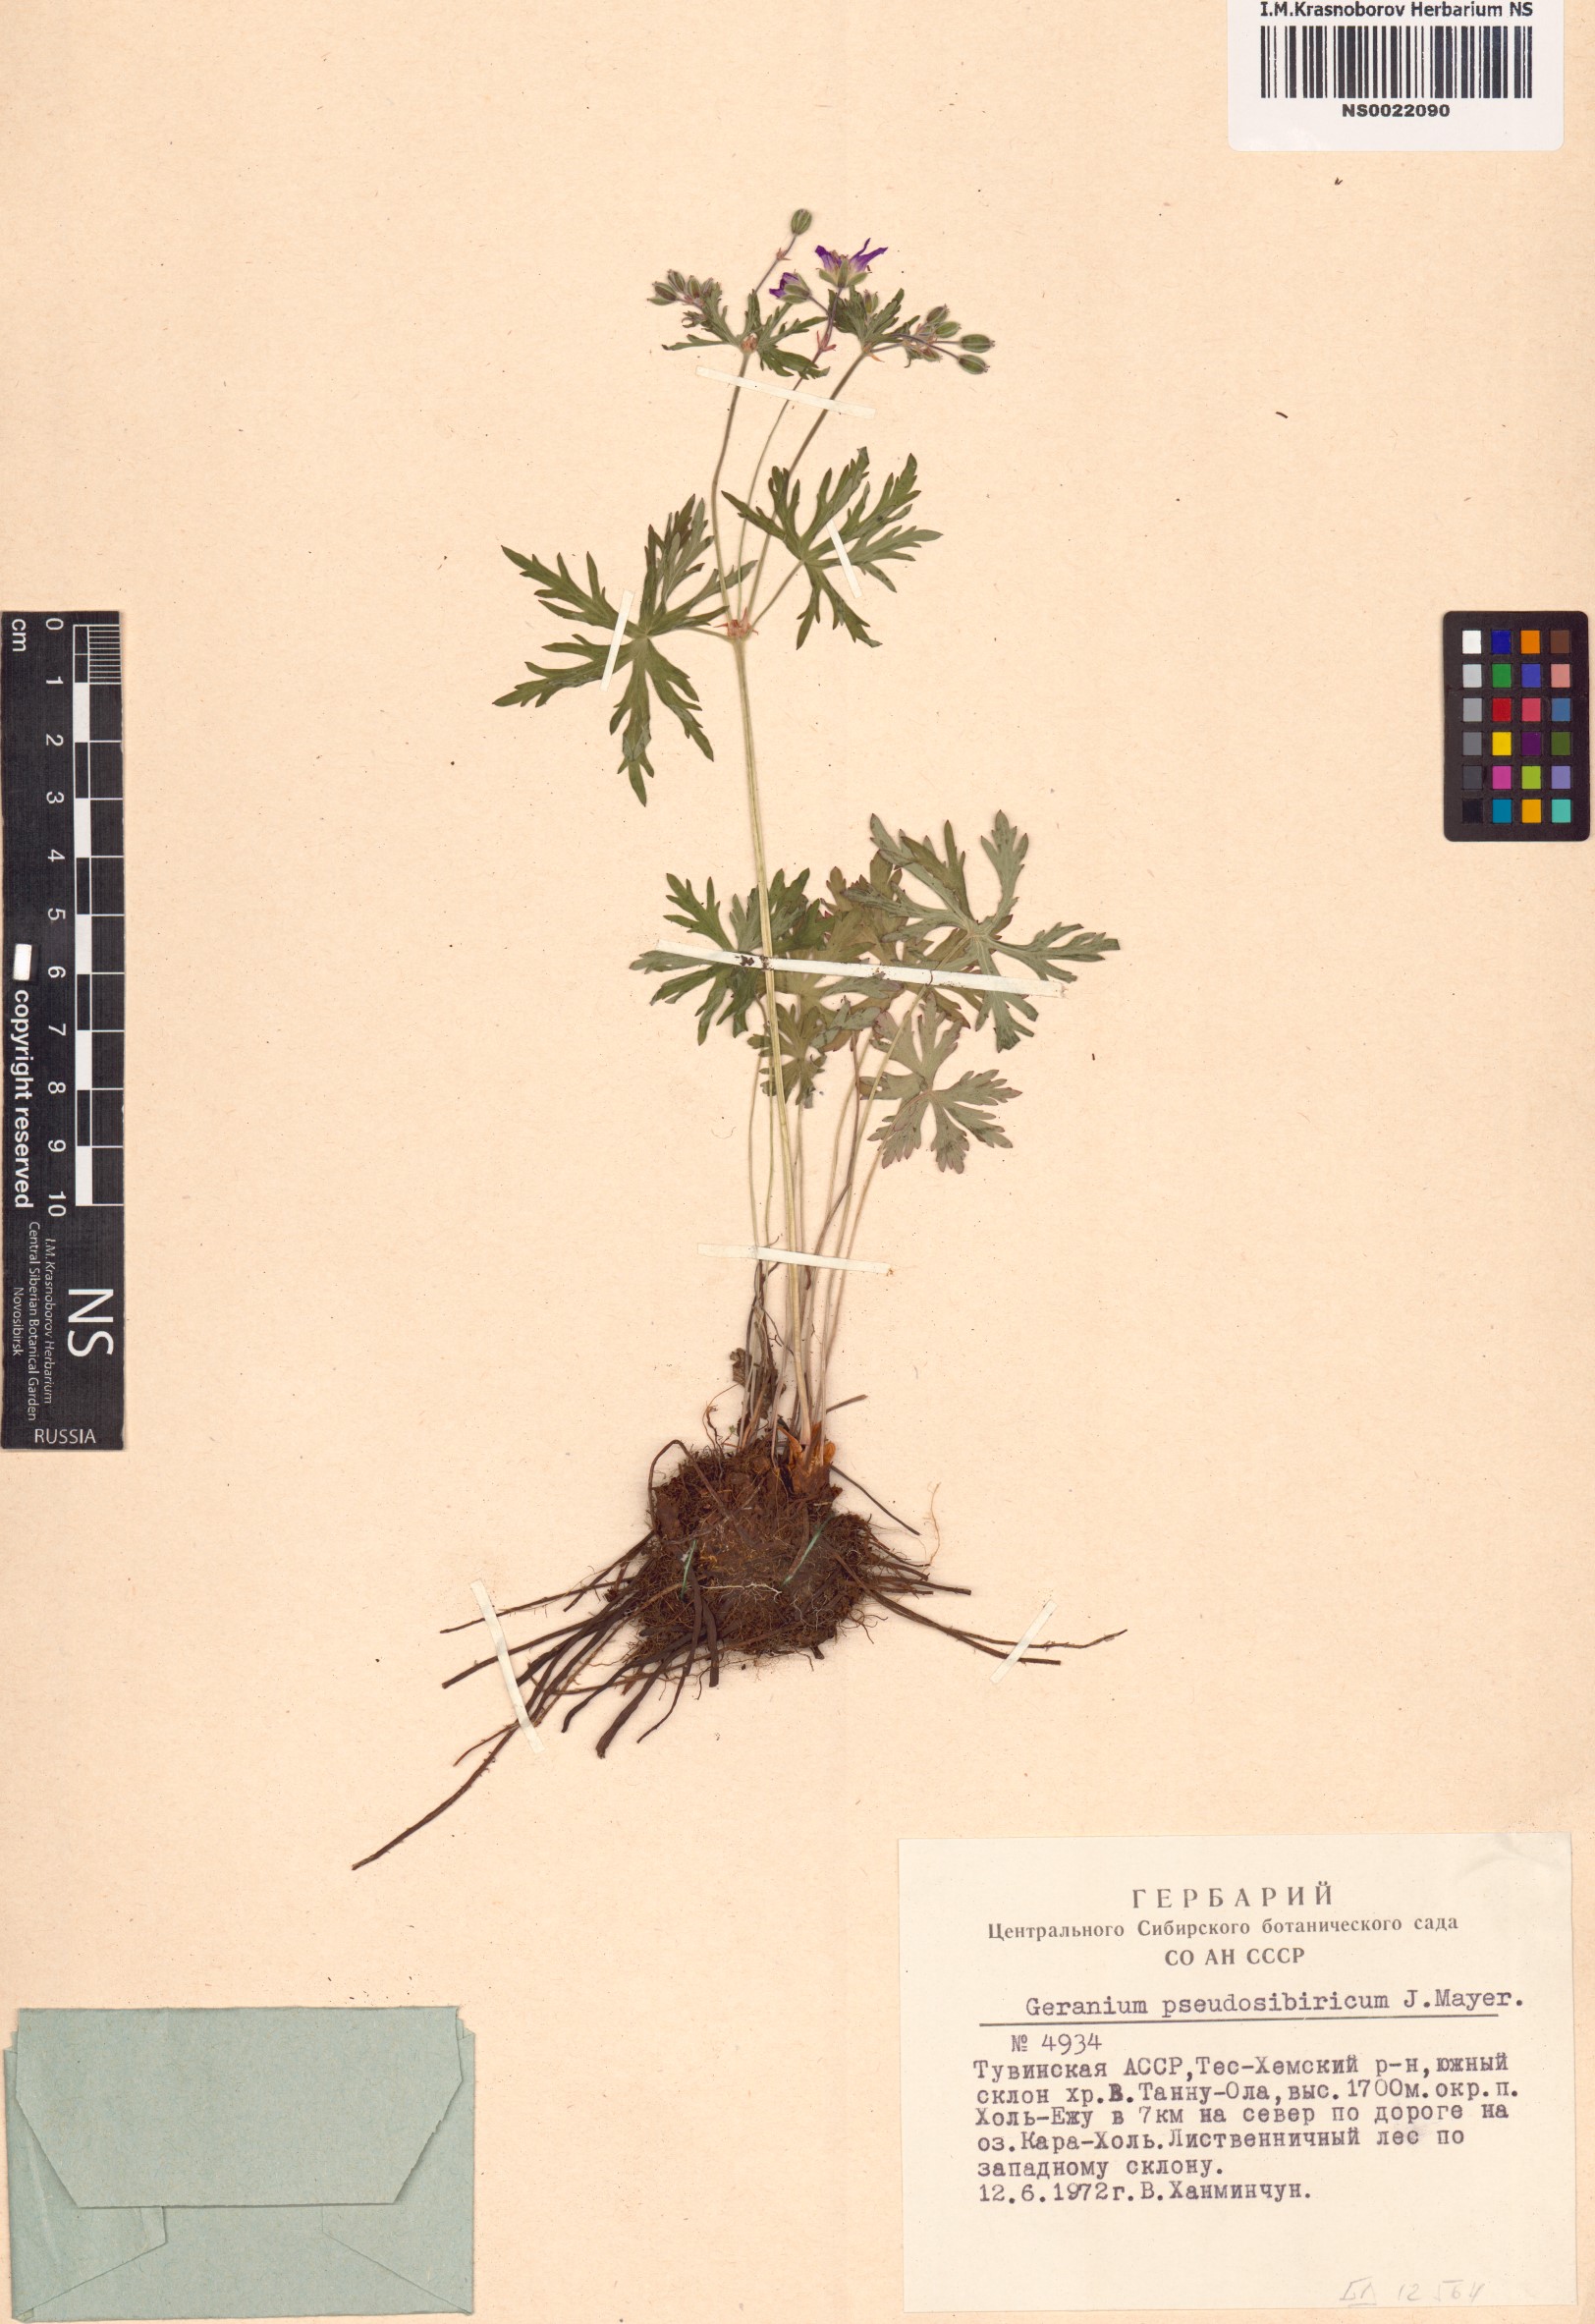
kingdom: Plantae
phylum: Tracheophyta
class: Magnoliopsida
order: Geraniales
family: Geraniaceae
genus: Geranium
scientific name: Geranium pseudosibiricum
